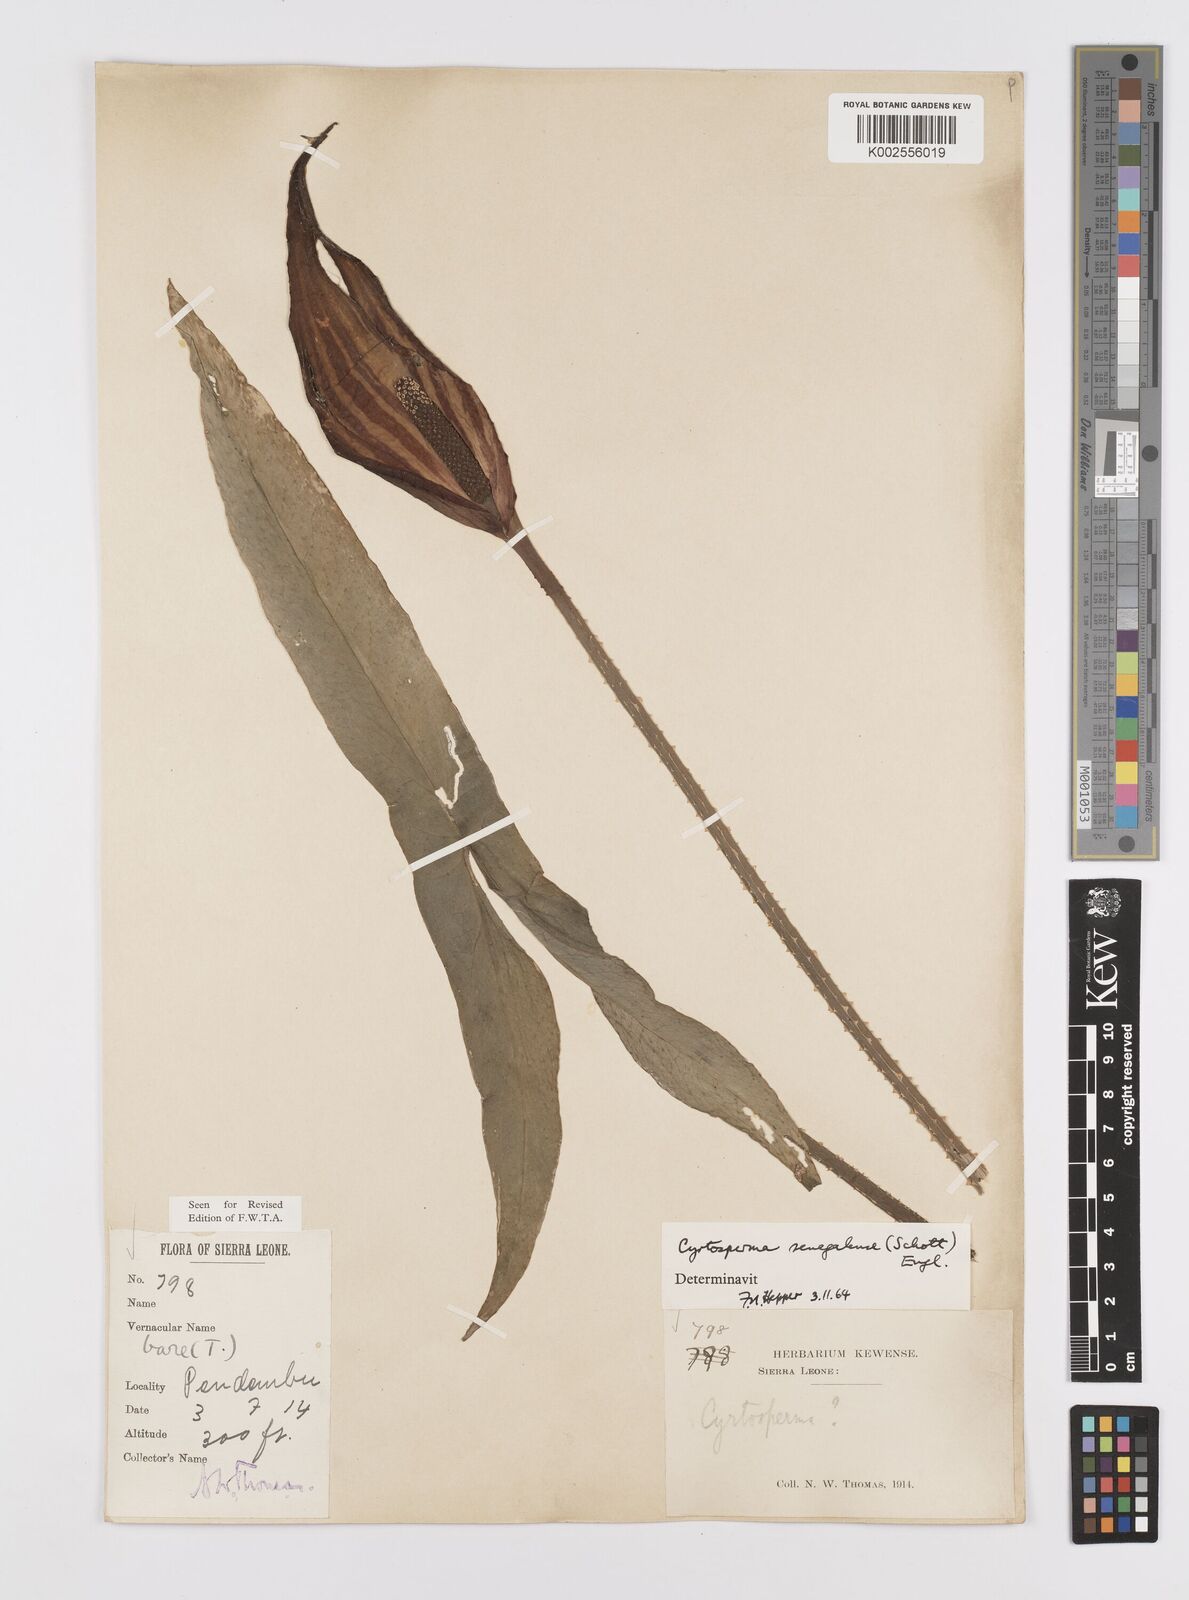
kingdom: Plantae
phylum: Tracheophyta
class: Liliopsida
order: Alismatales
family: Araceae
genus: Lasimorpha
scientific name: Lasimorpha senegalensis
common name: Swamp arum
